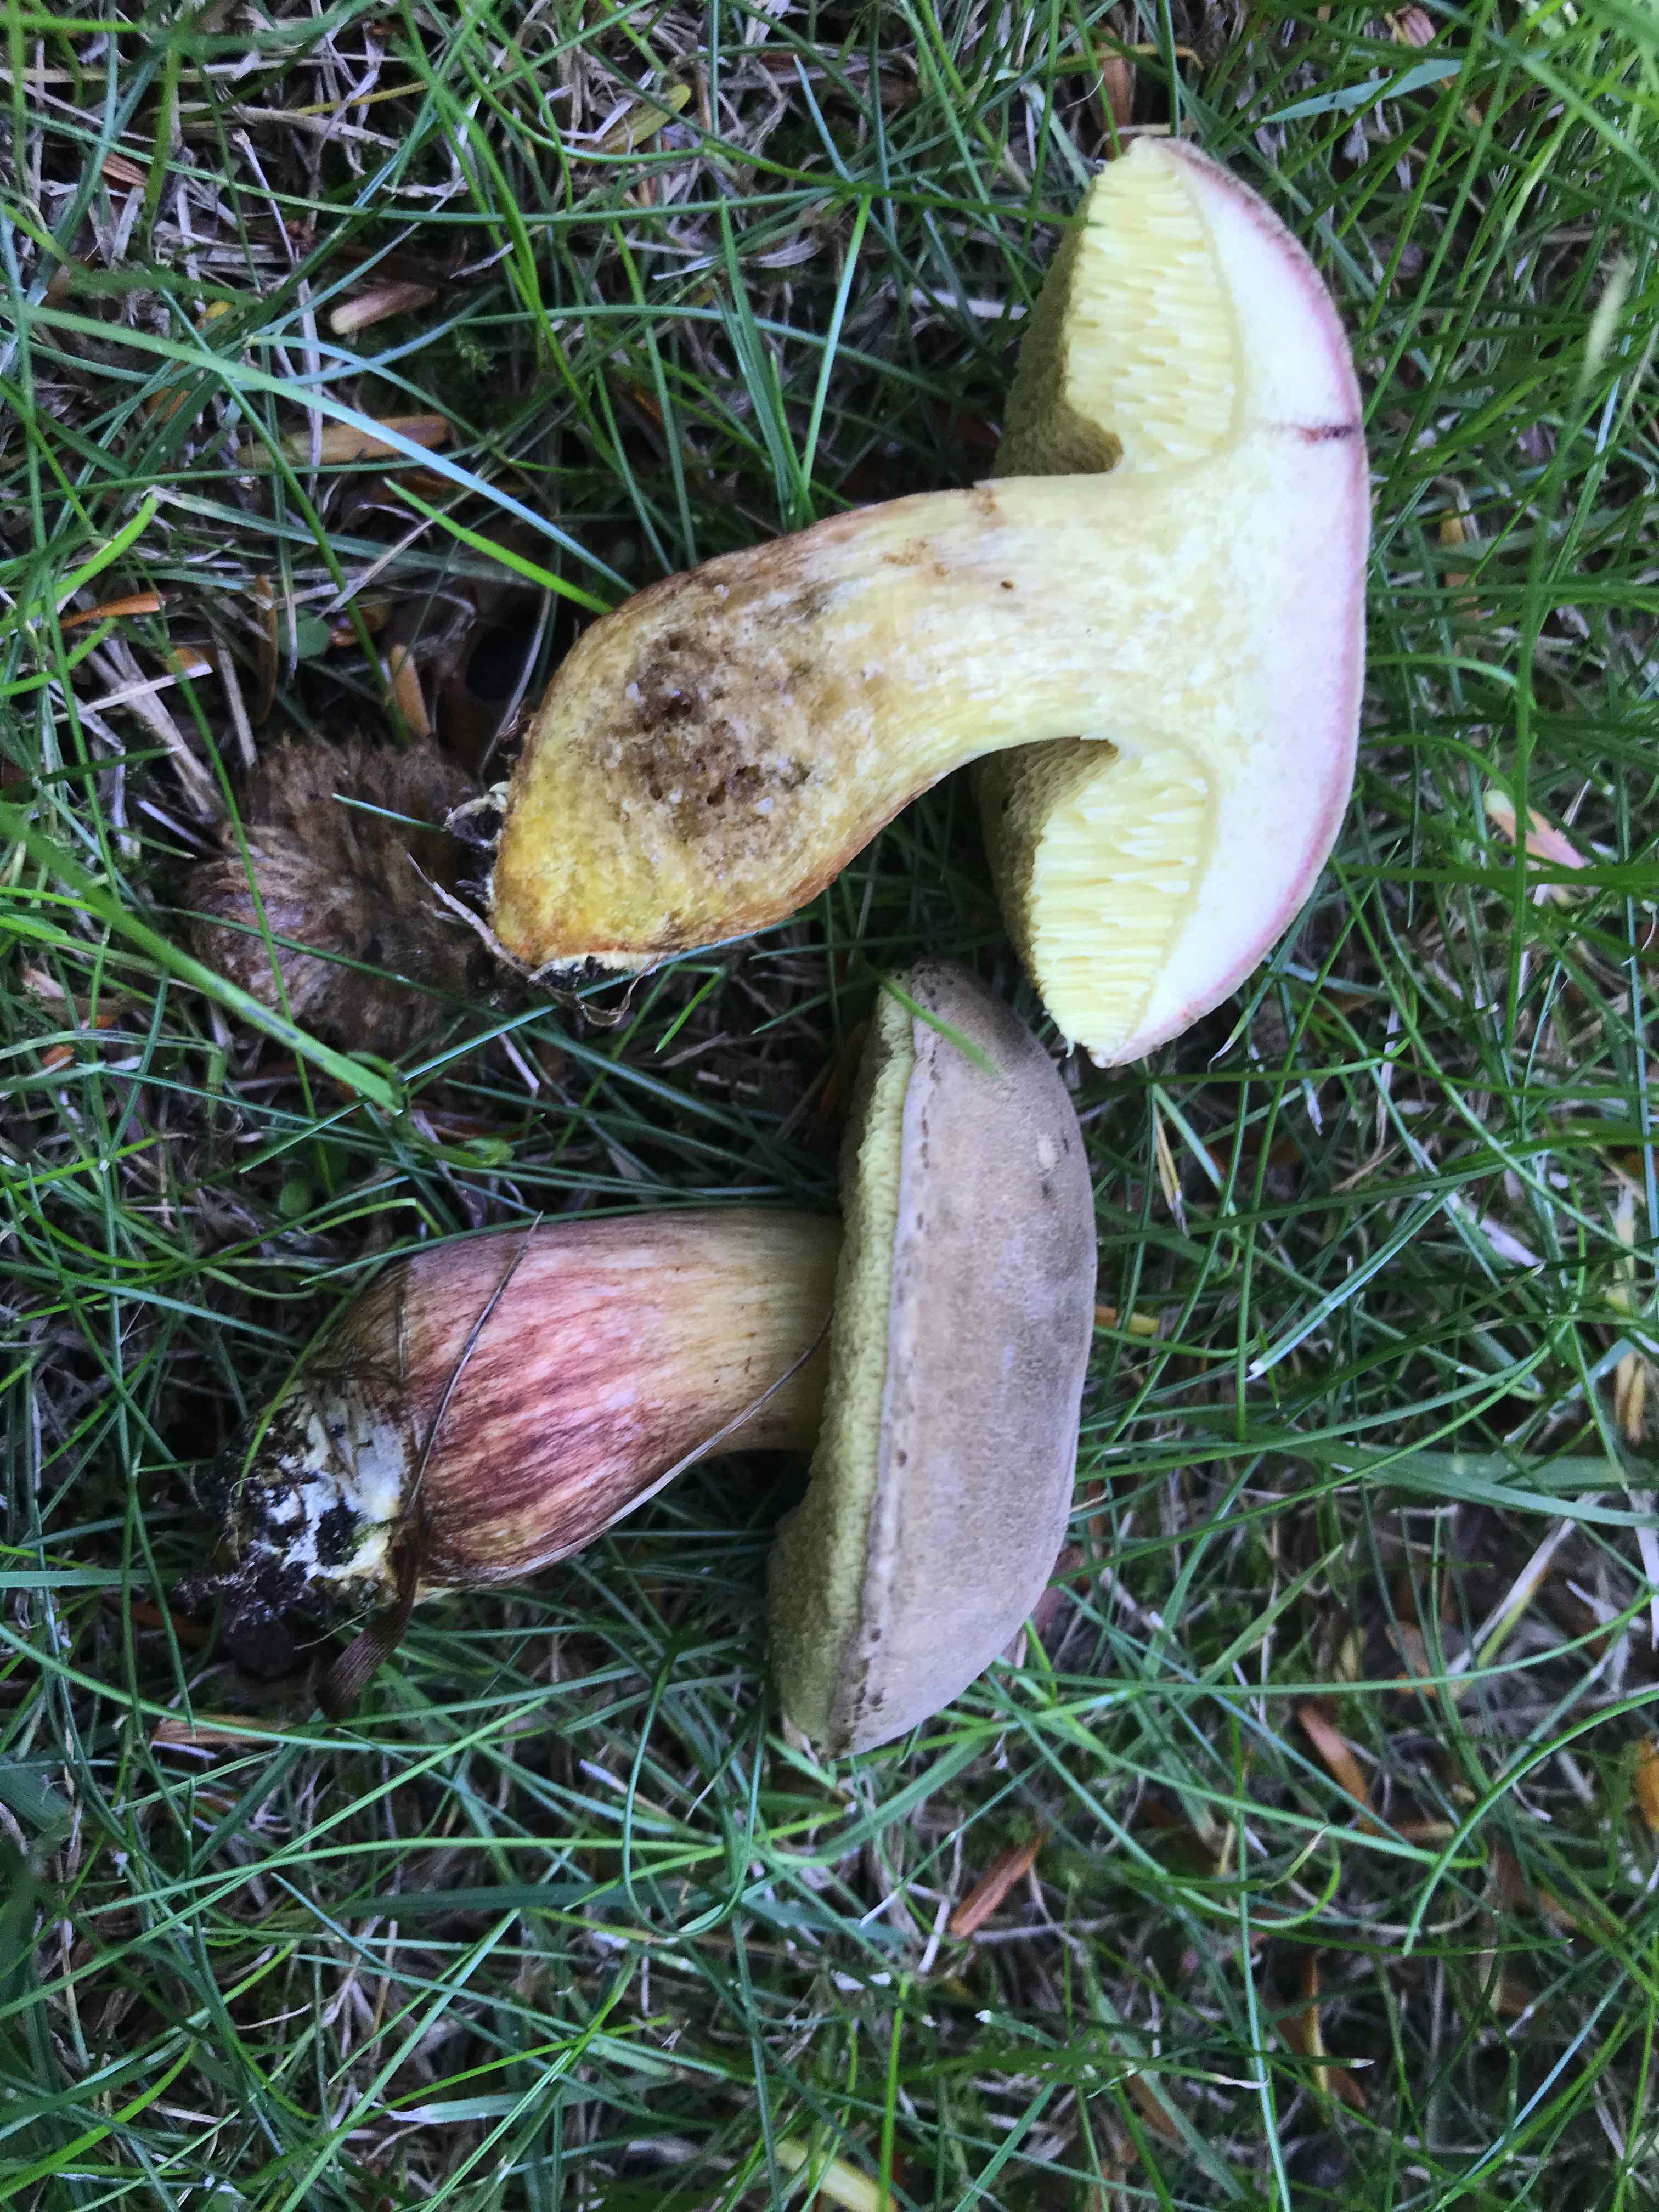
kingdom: Fungi
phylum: Basidiomycota
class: Agaricomycetes
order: Boletales
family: Boletaceae
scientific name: Boletaceae
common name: rørhatfamilien
